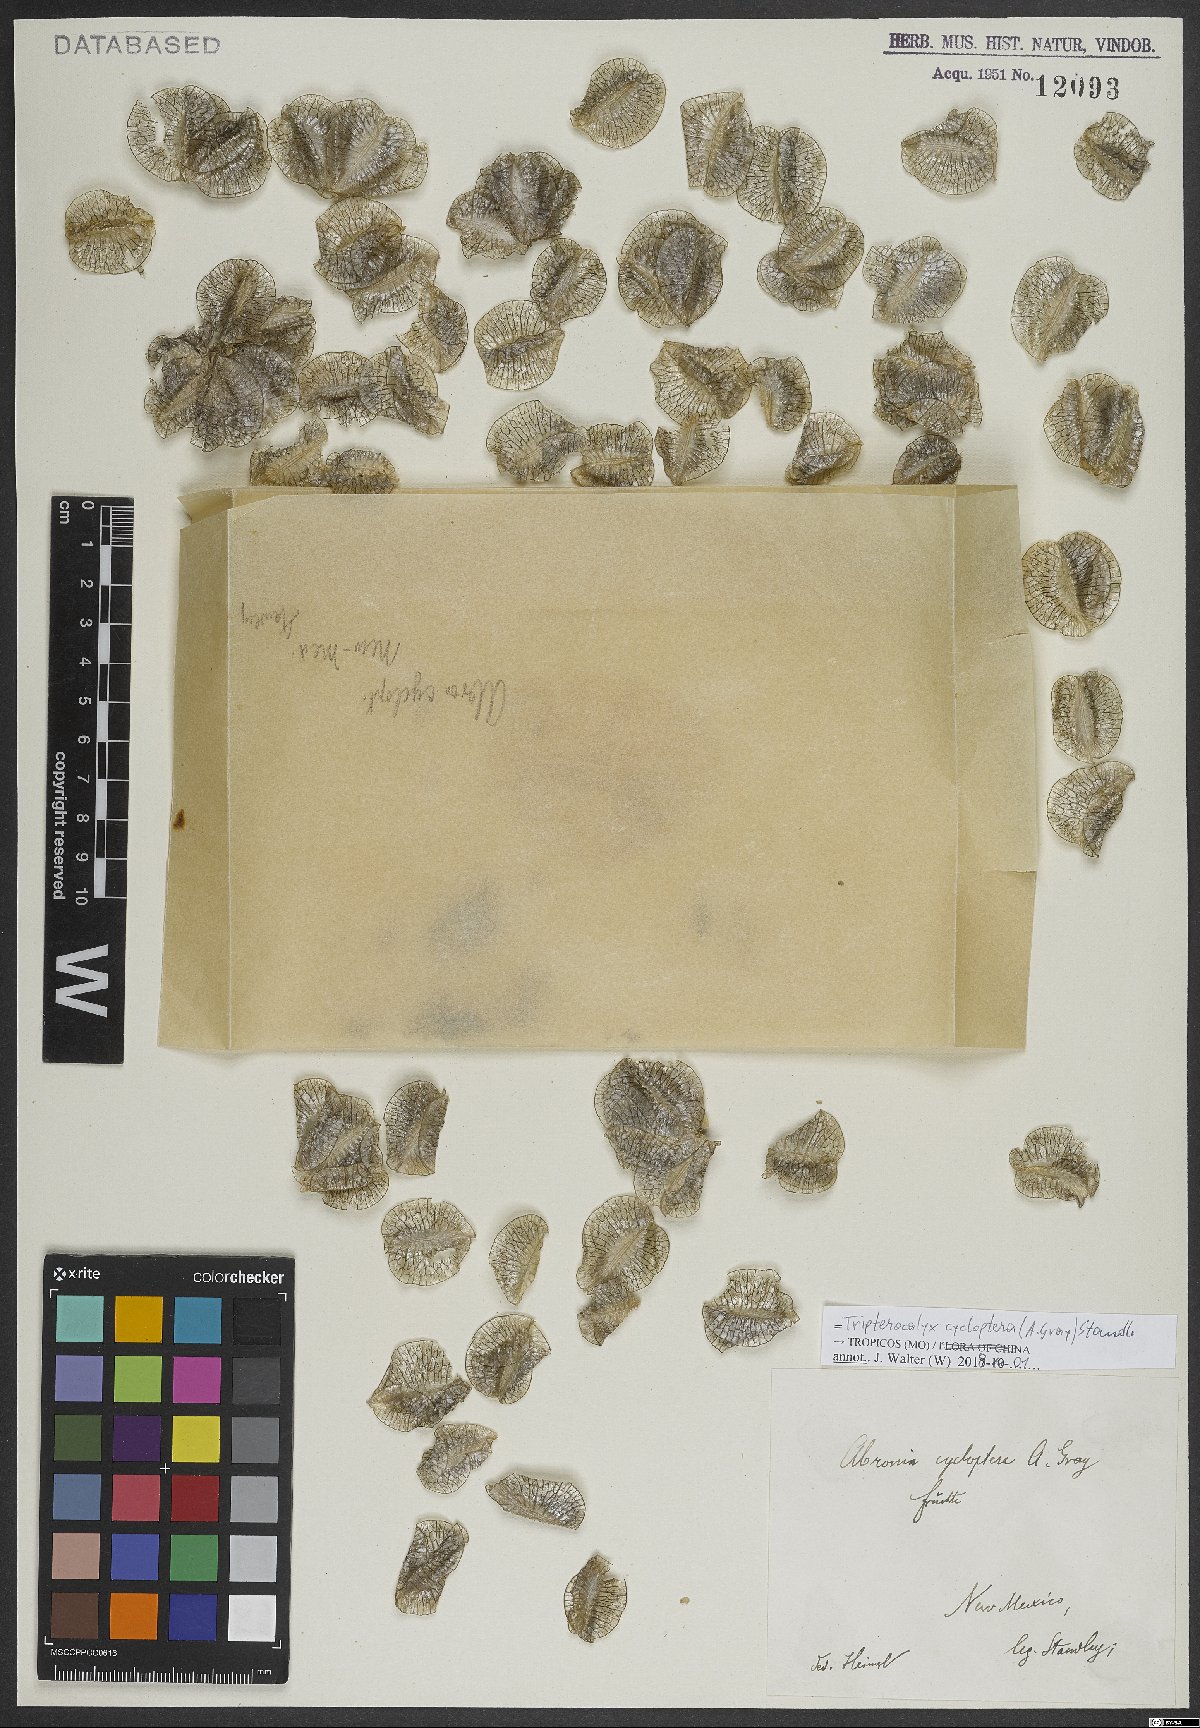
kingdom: Plantae
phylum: Tracheophyta
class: Magnoliopsida
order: Caryophyllales
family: Nyctaginaceae
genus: Tripterocalyx
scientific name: Tripterocalyx micranthus
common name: Small-flowered sand-verbena
